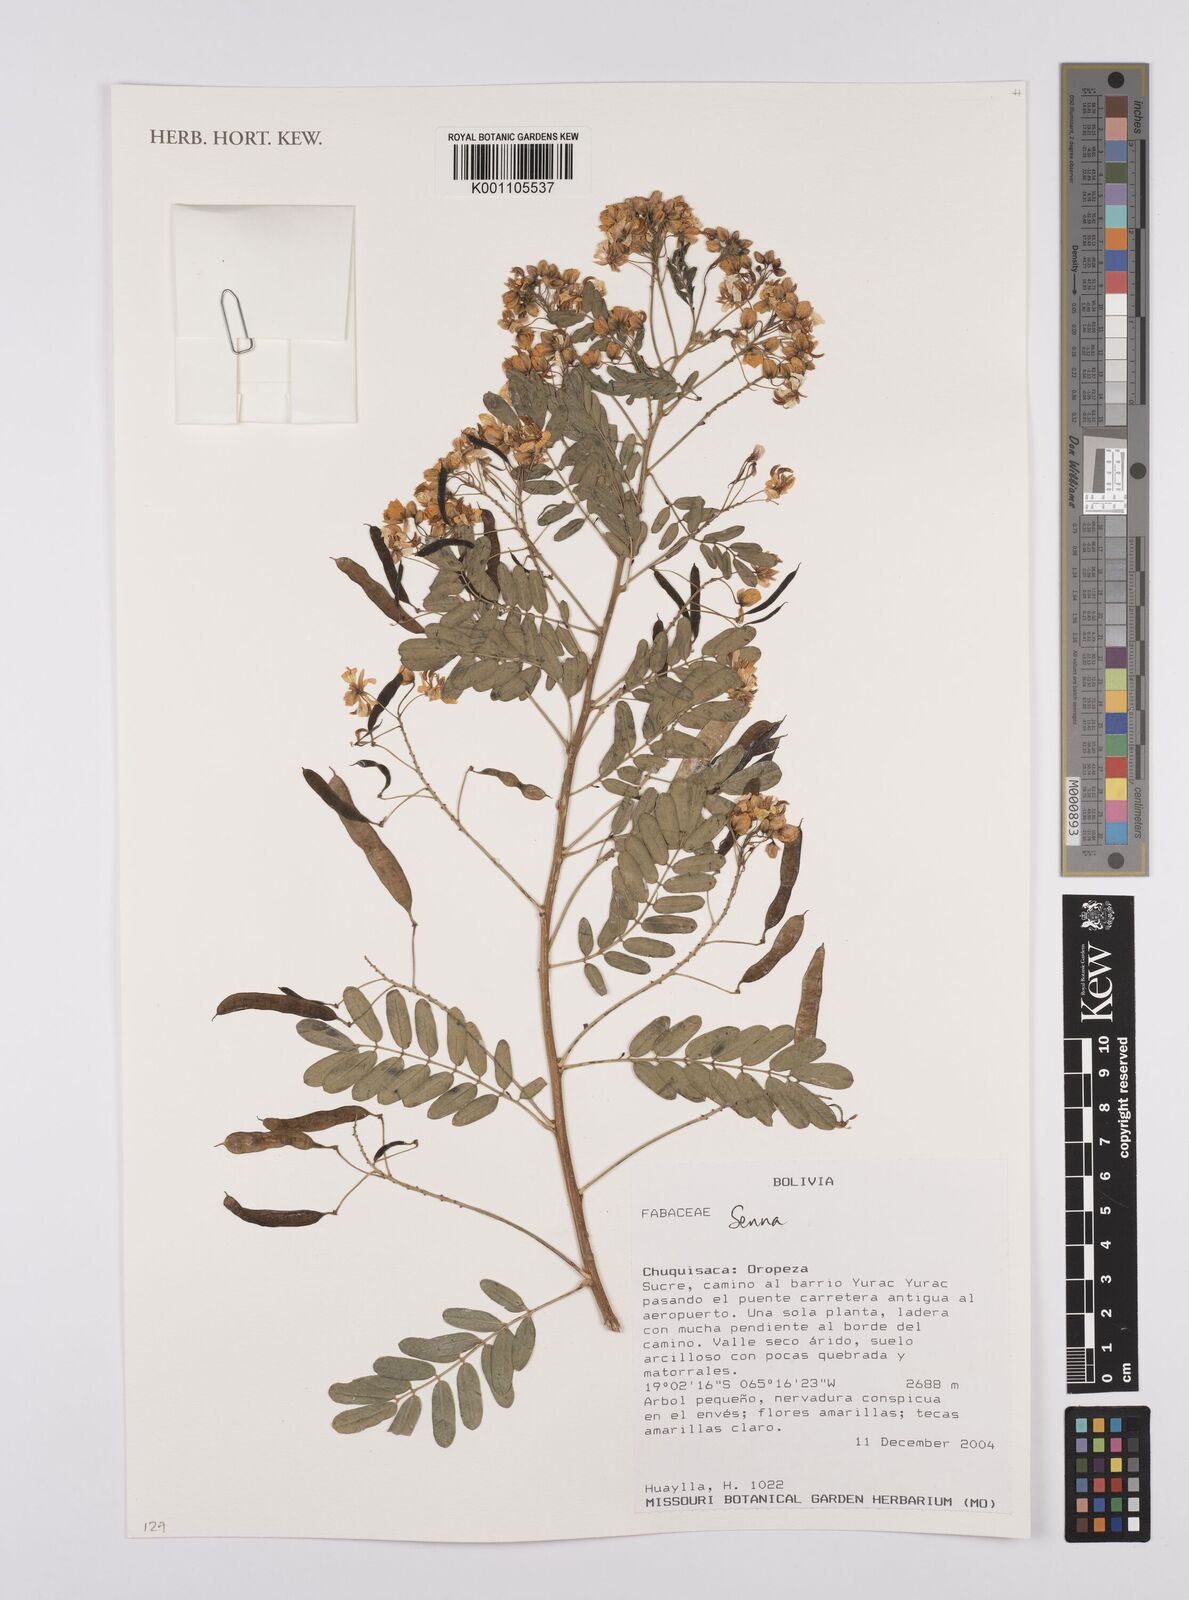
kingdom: Plantae
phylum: Tracheophyta
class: Magnoliopsida
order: Fabales
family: Fabaceae
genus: Senna
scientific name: Senna
